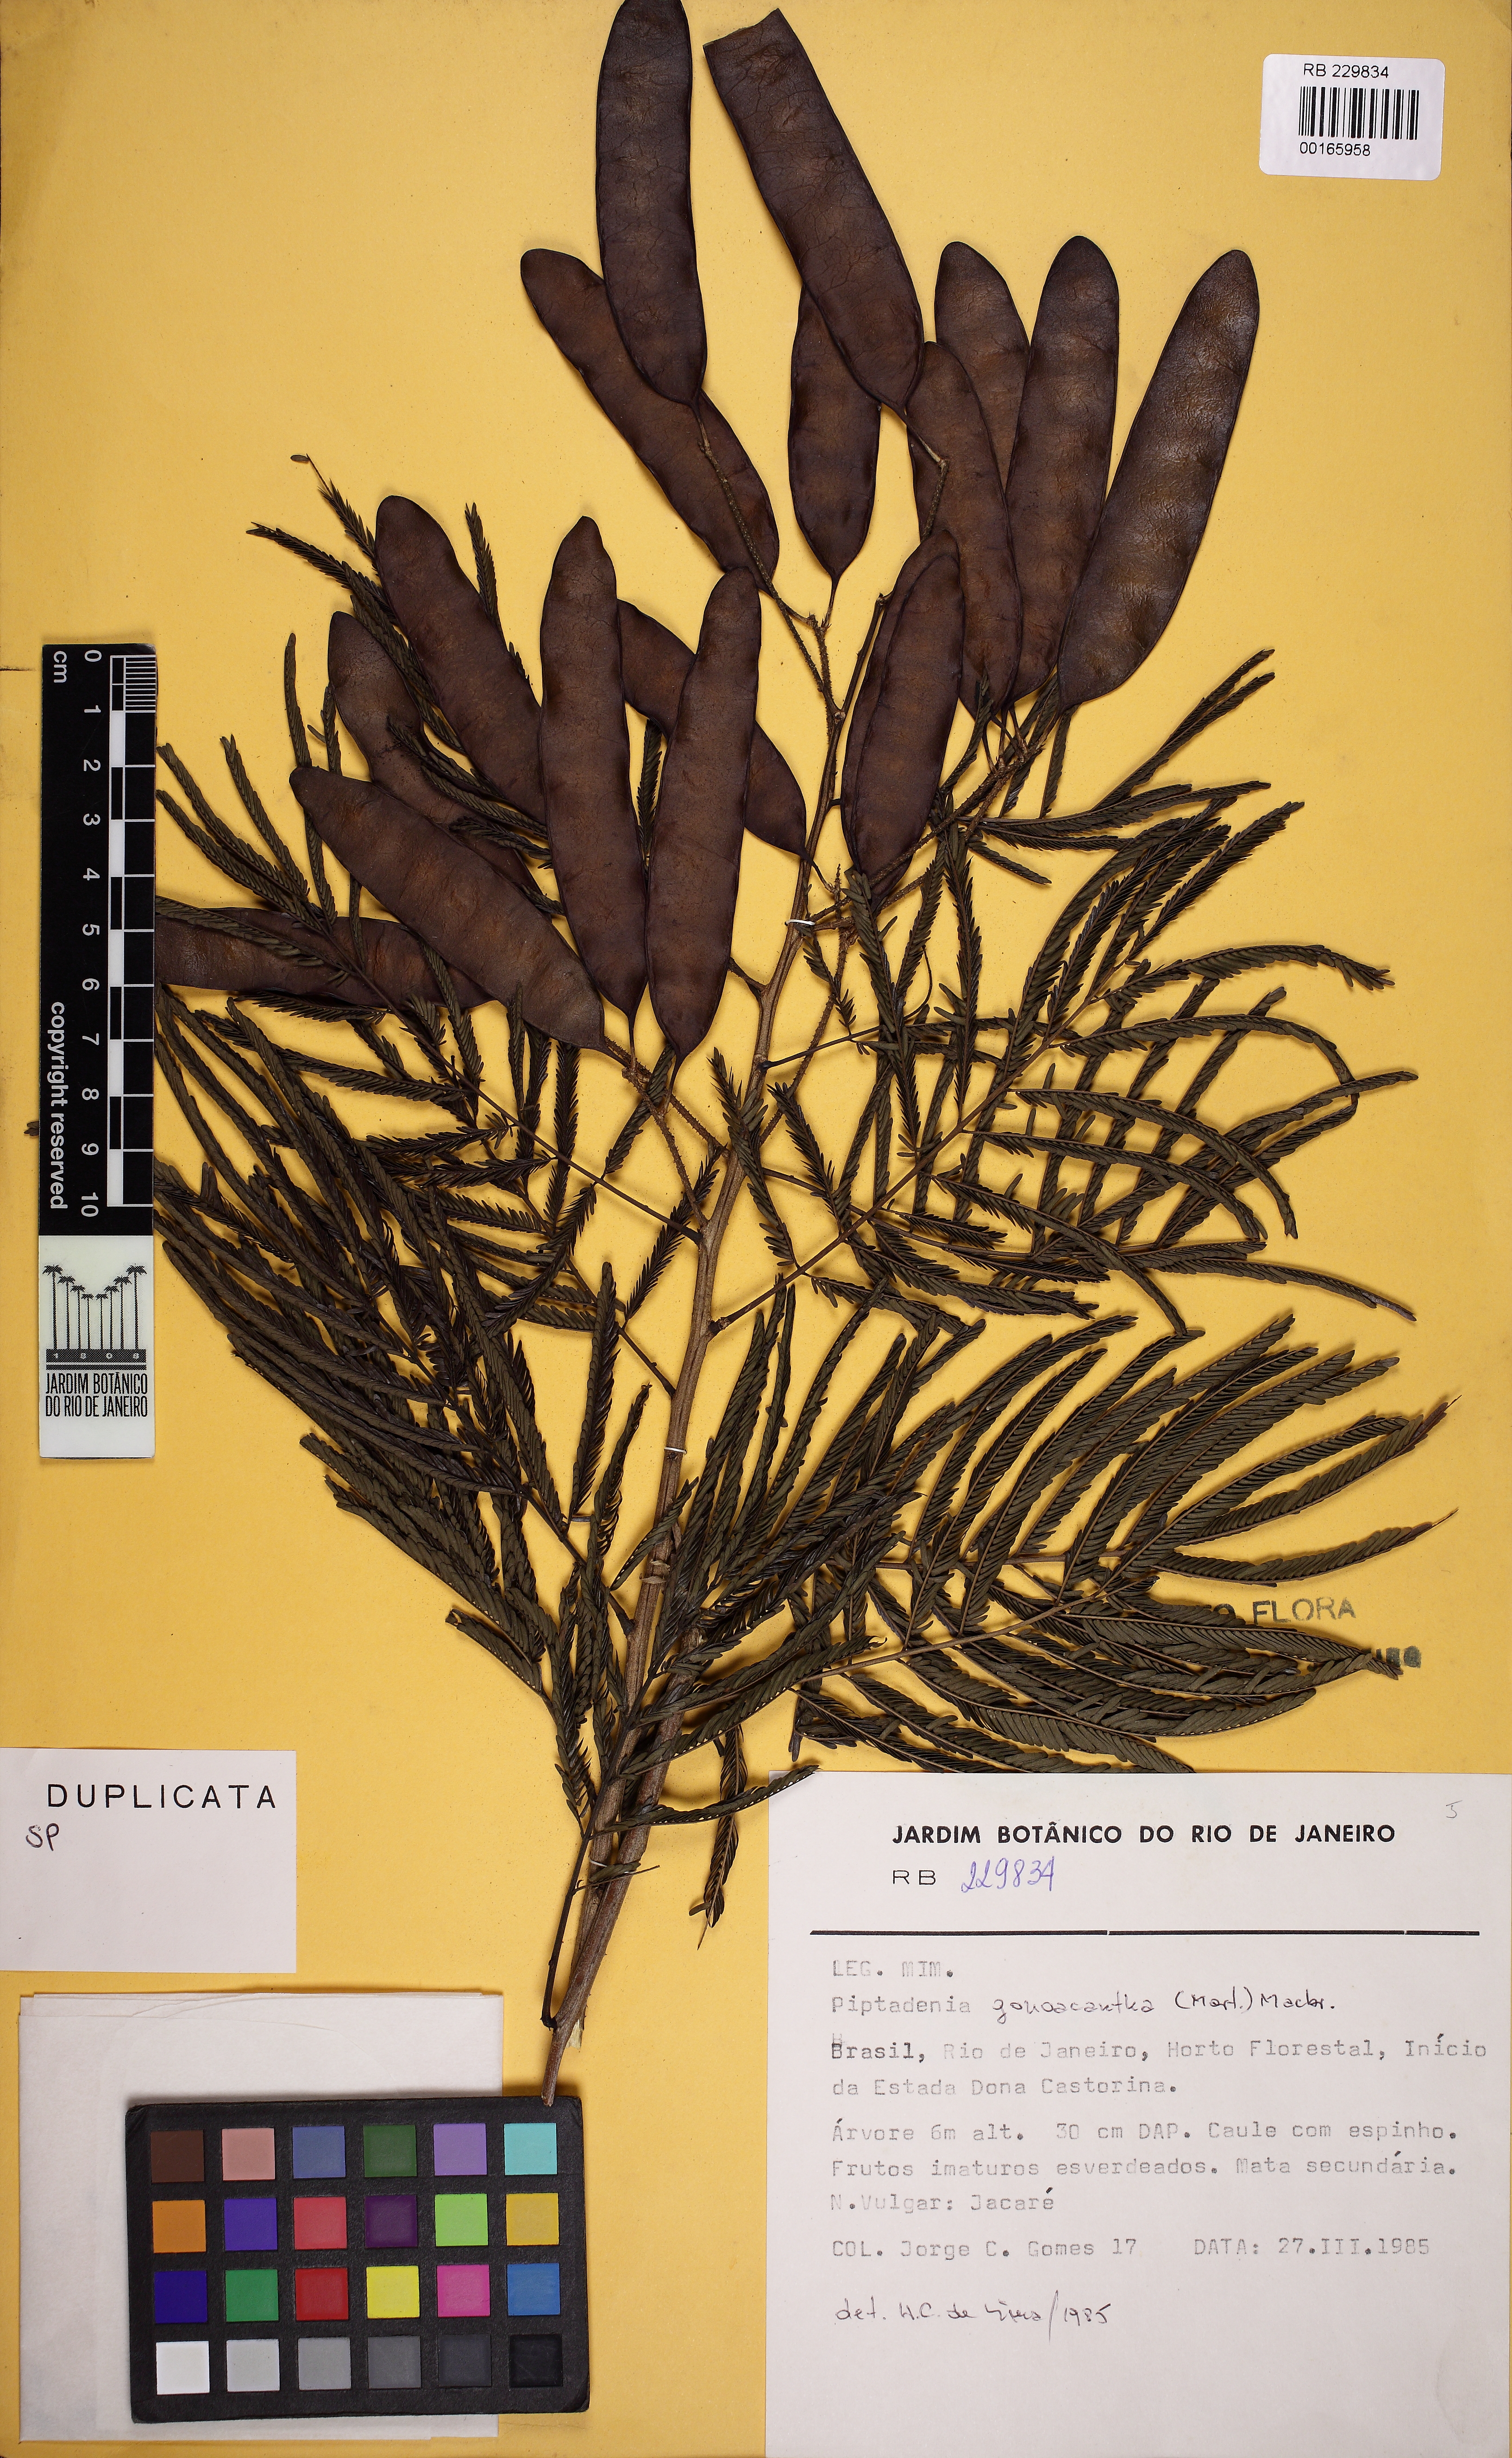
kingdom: Plantae
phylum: Tracheophyta
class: Magnoliopsida
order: Fabales
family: Fabaceae
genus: Piptadenia
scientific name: Piptadenia gonoacantha
